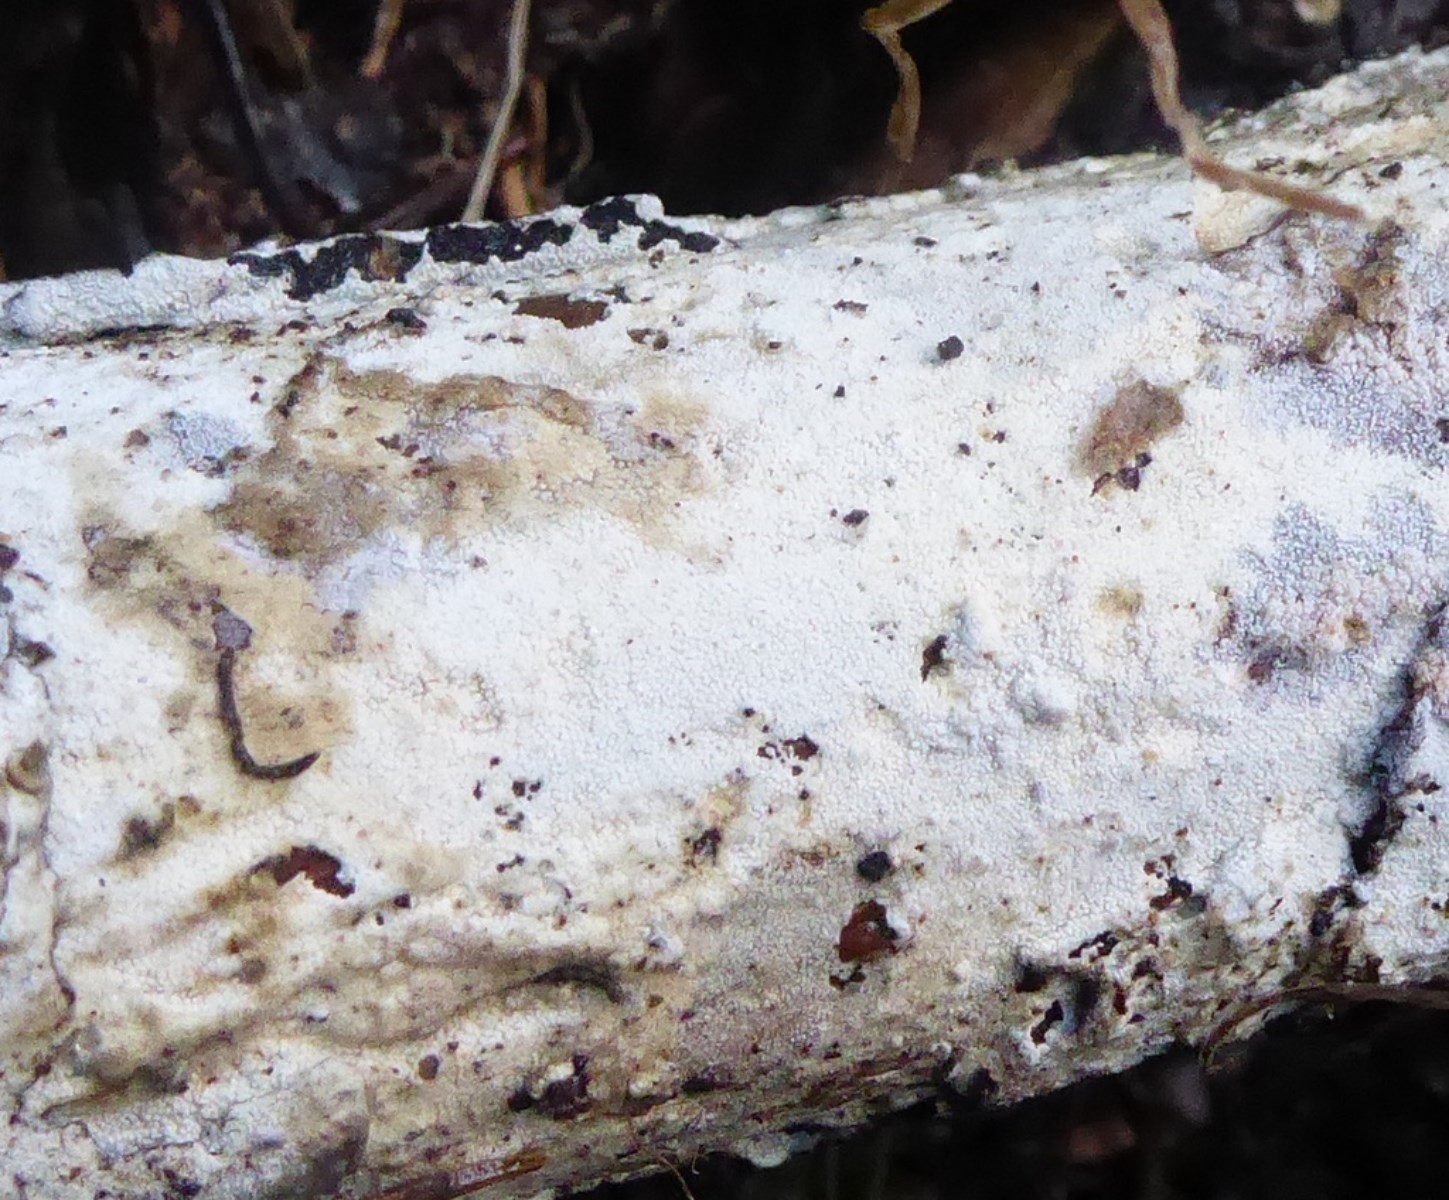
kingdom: Fungi
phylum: Basidiomycota
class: Agaricomycetes
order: Corticiales
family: Corticiaceae
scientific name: Corticiaceae
